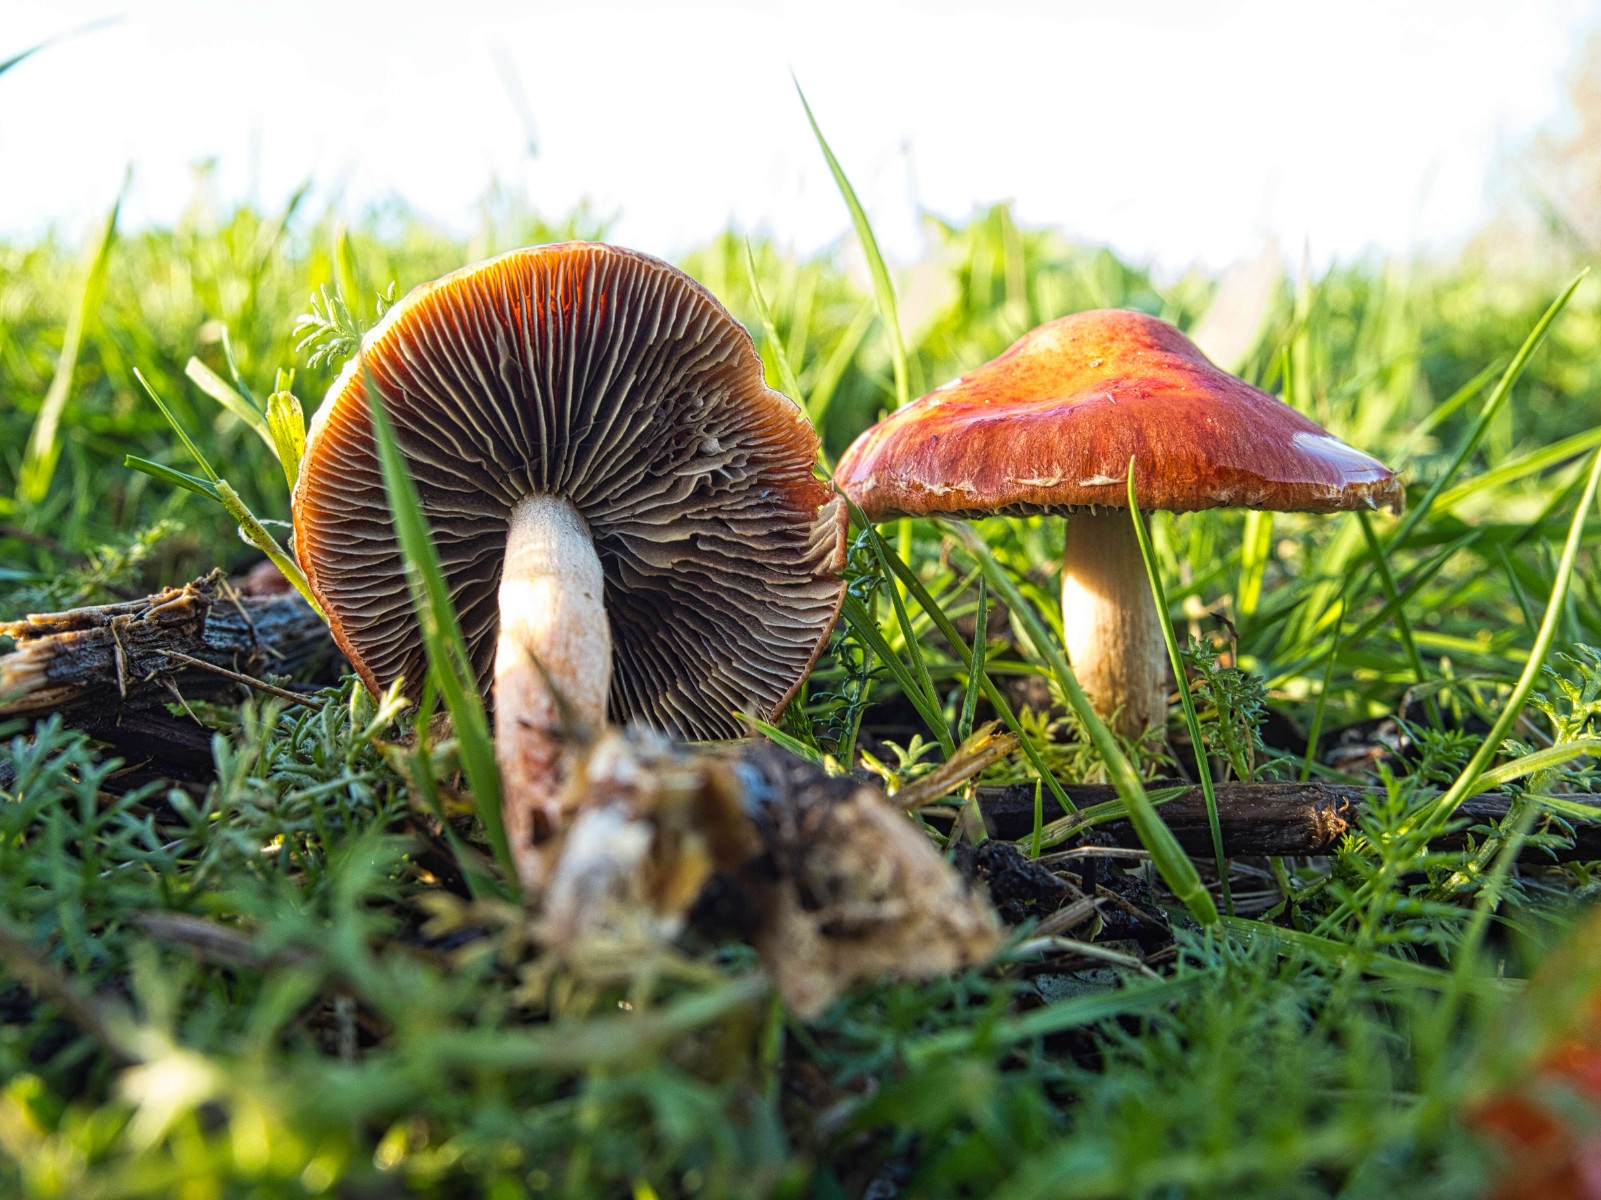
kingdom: Fungi
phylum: Basidiomycota
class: Agaricomycetes
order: Agaricales
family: Strophariaceae
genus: Leratiomyces
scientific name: Leratiomyces ceres
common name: orange bredblad
